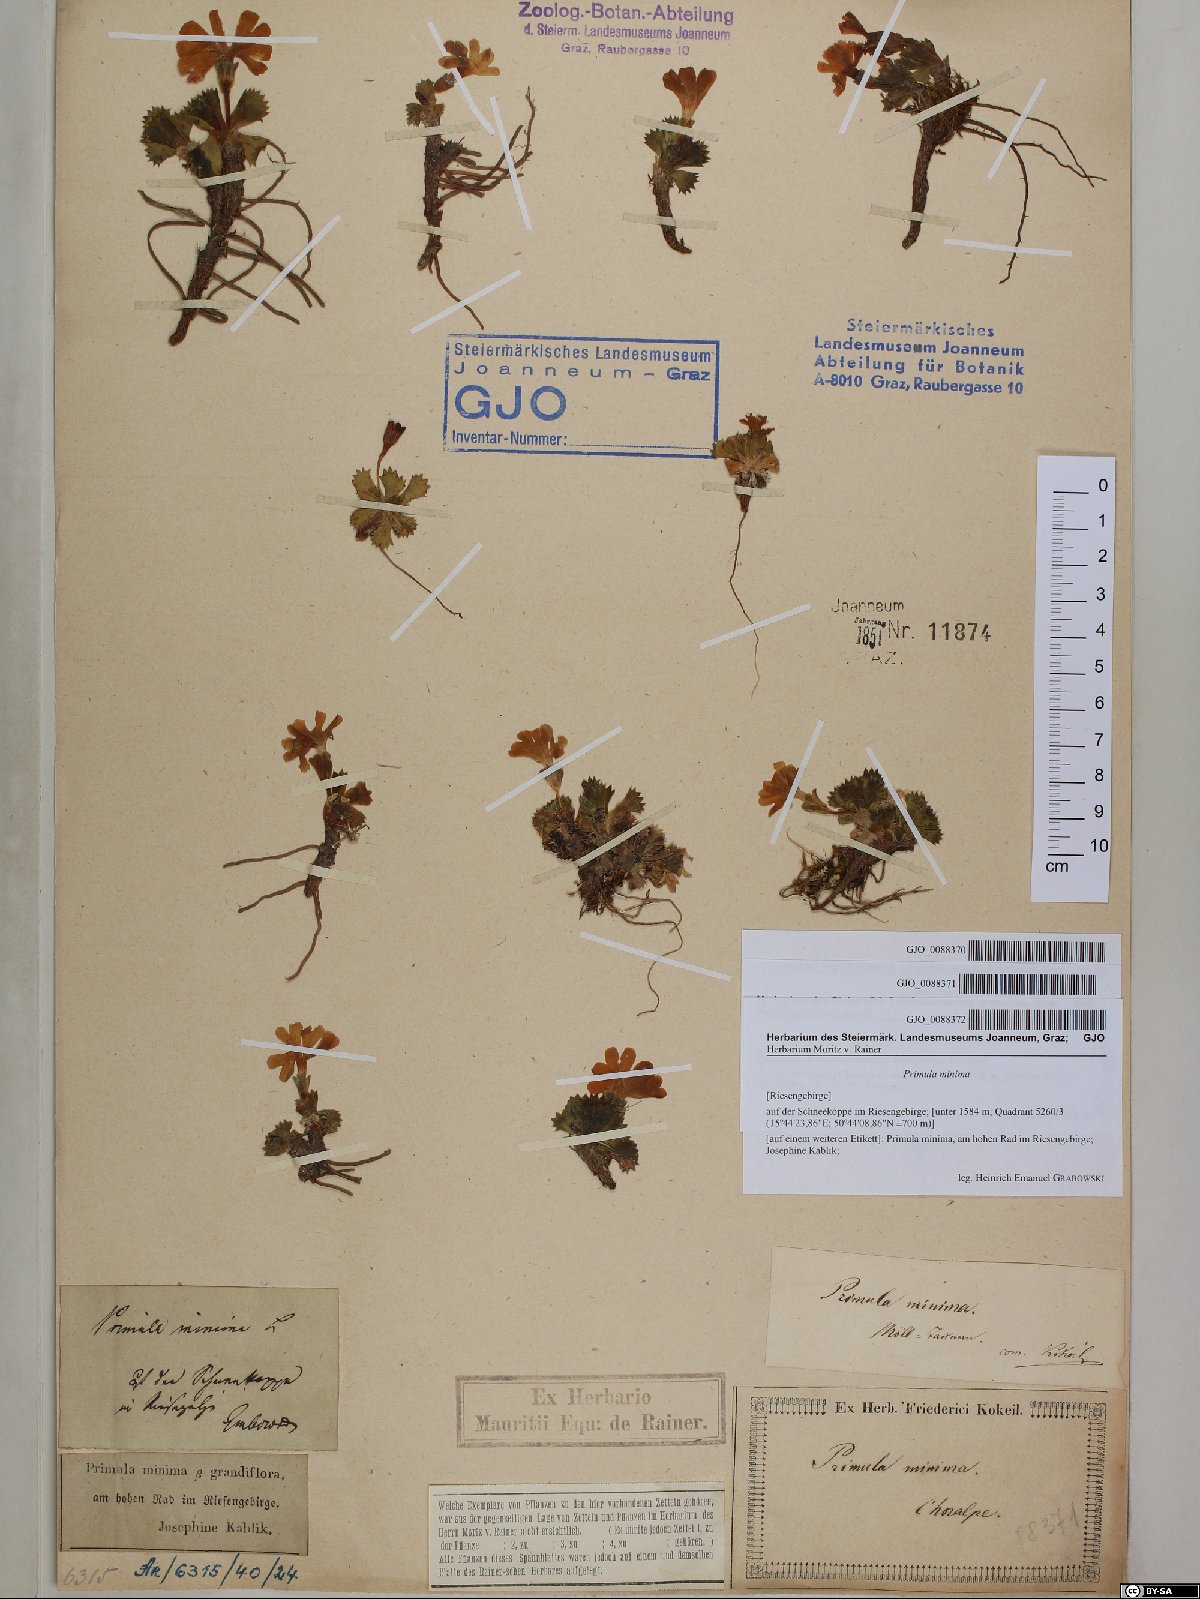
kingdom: Plantae
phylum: Tracheophyta
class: Magnoliopsida
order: Ericales
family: Primulaceae
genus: Primula
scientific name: Primula minima
